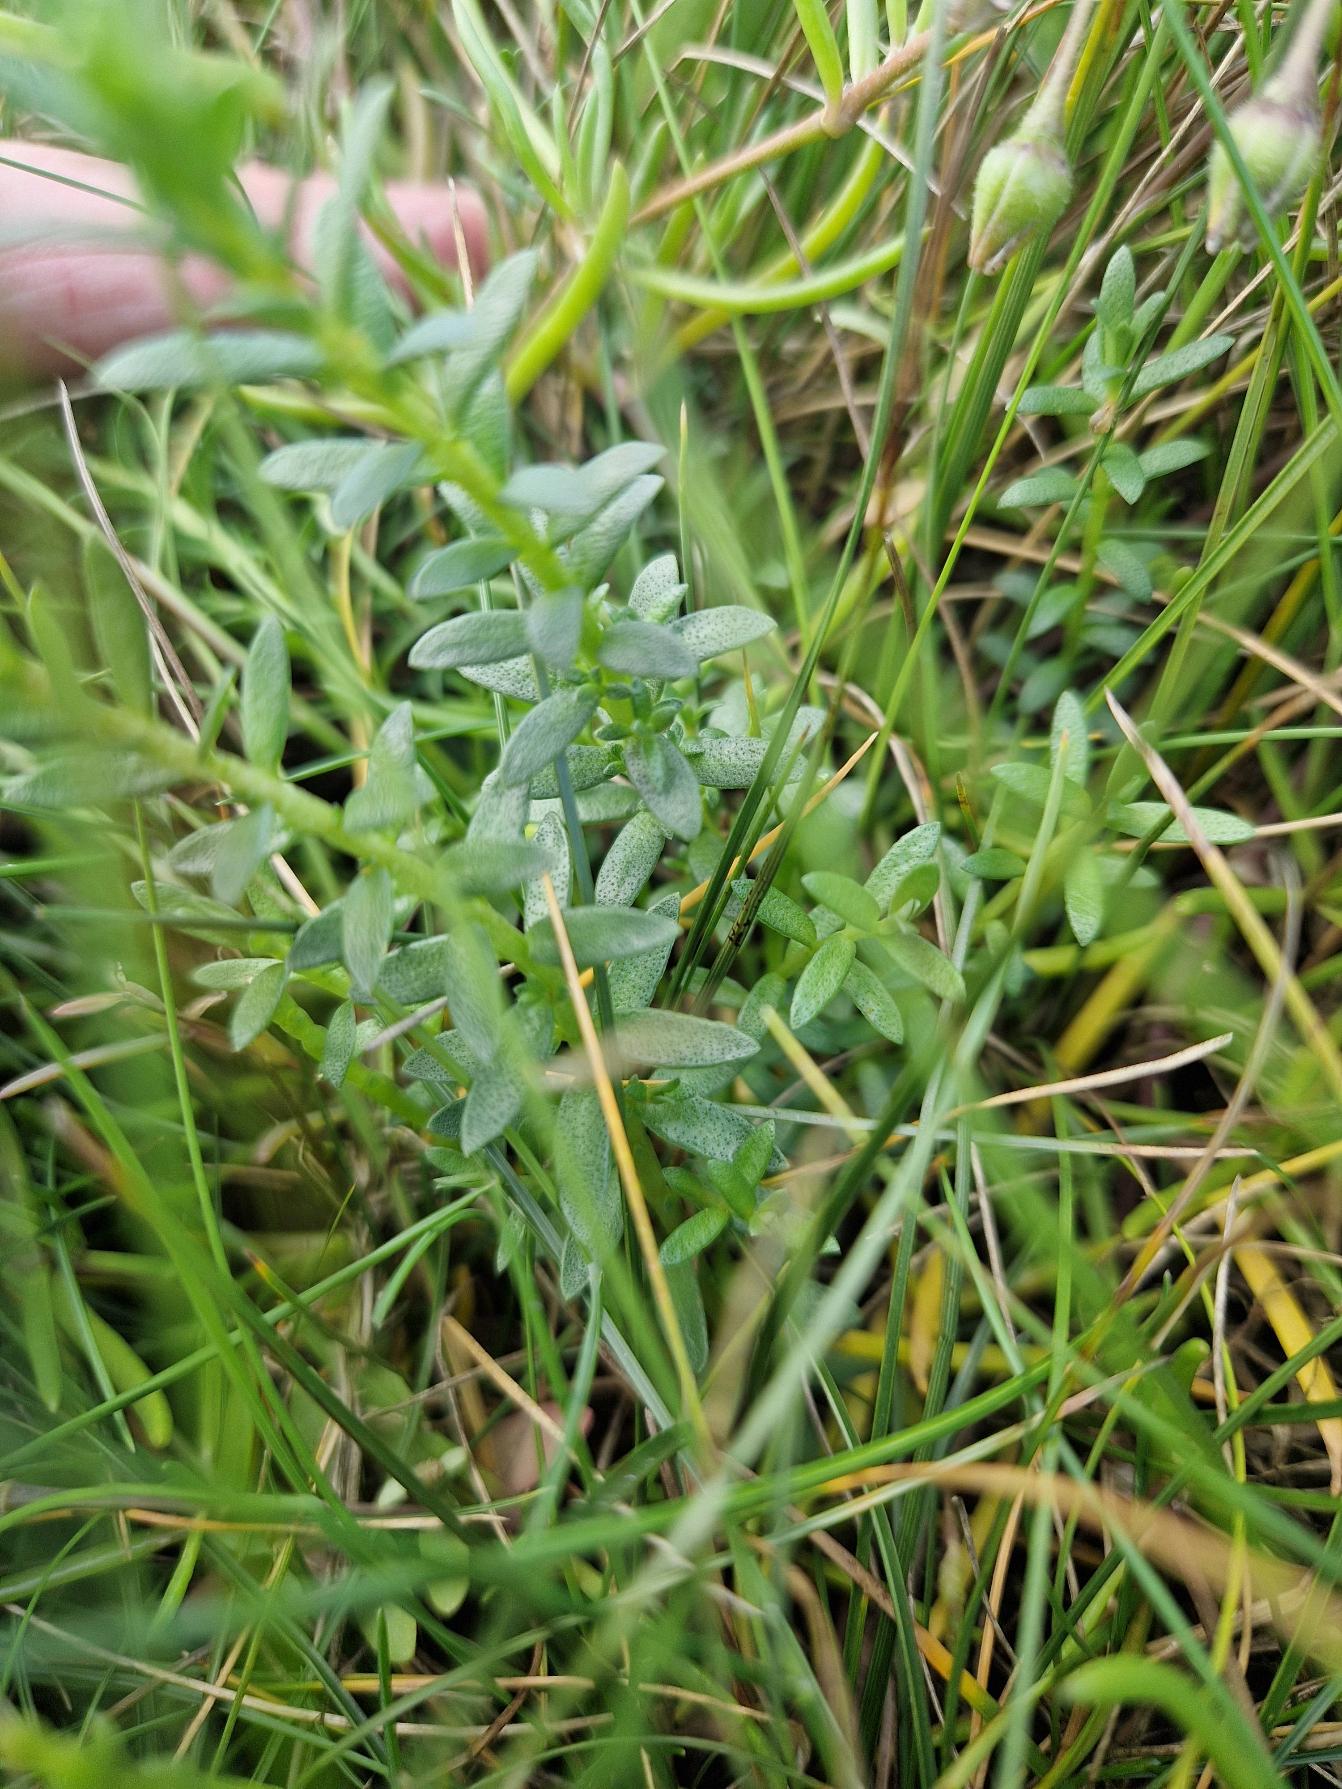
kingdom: Plantae
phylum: Tracheophyta
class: Magnoliopsida
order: Ericales
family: Primulaceae
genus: Lysimachia
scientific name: Lysimachia maritima
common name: Sandkryb
